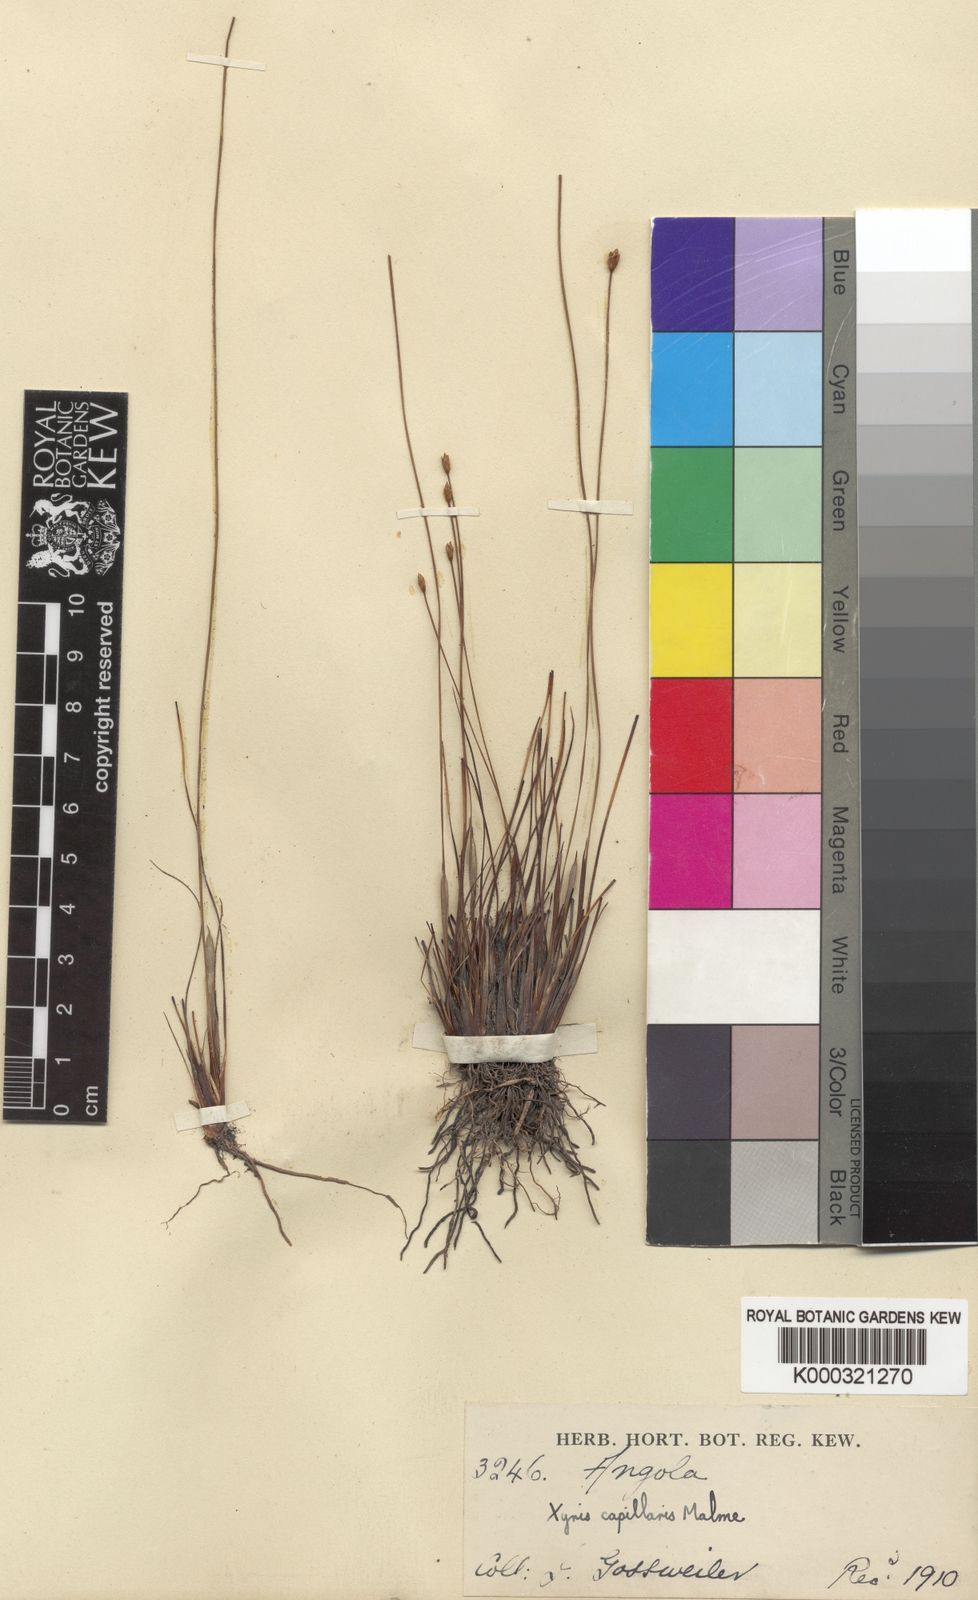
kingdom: Plantae
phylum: Tracheophyta
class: Liliopsida
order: Poales
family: Xyridaceae
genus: Xyris
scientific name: Xyris capillaris
